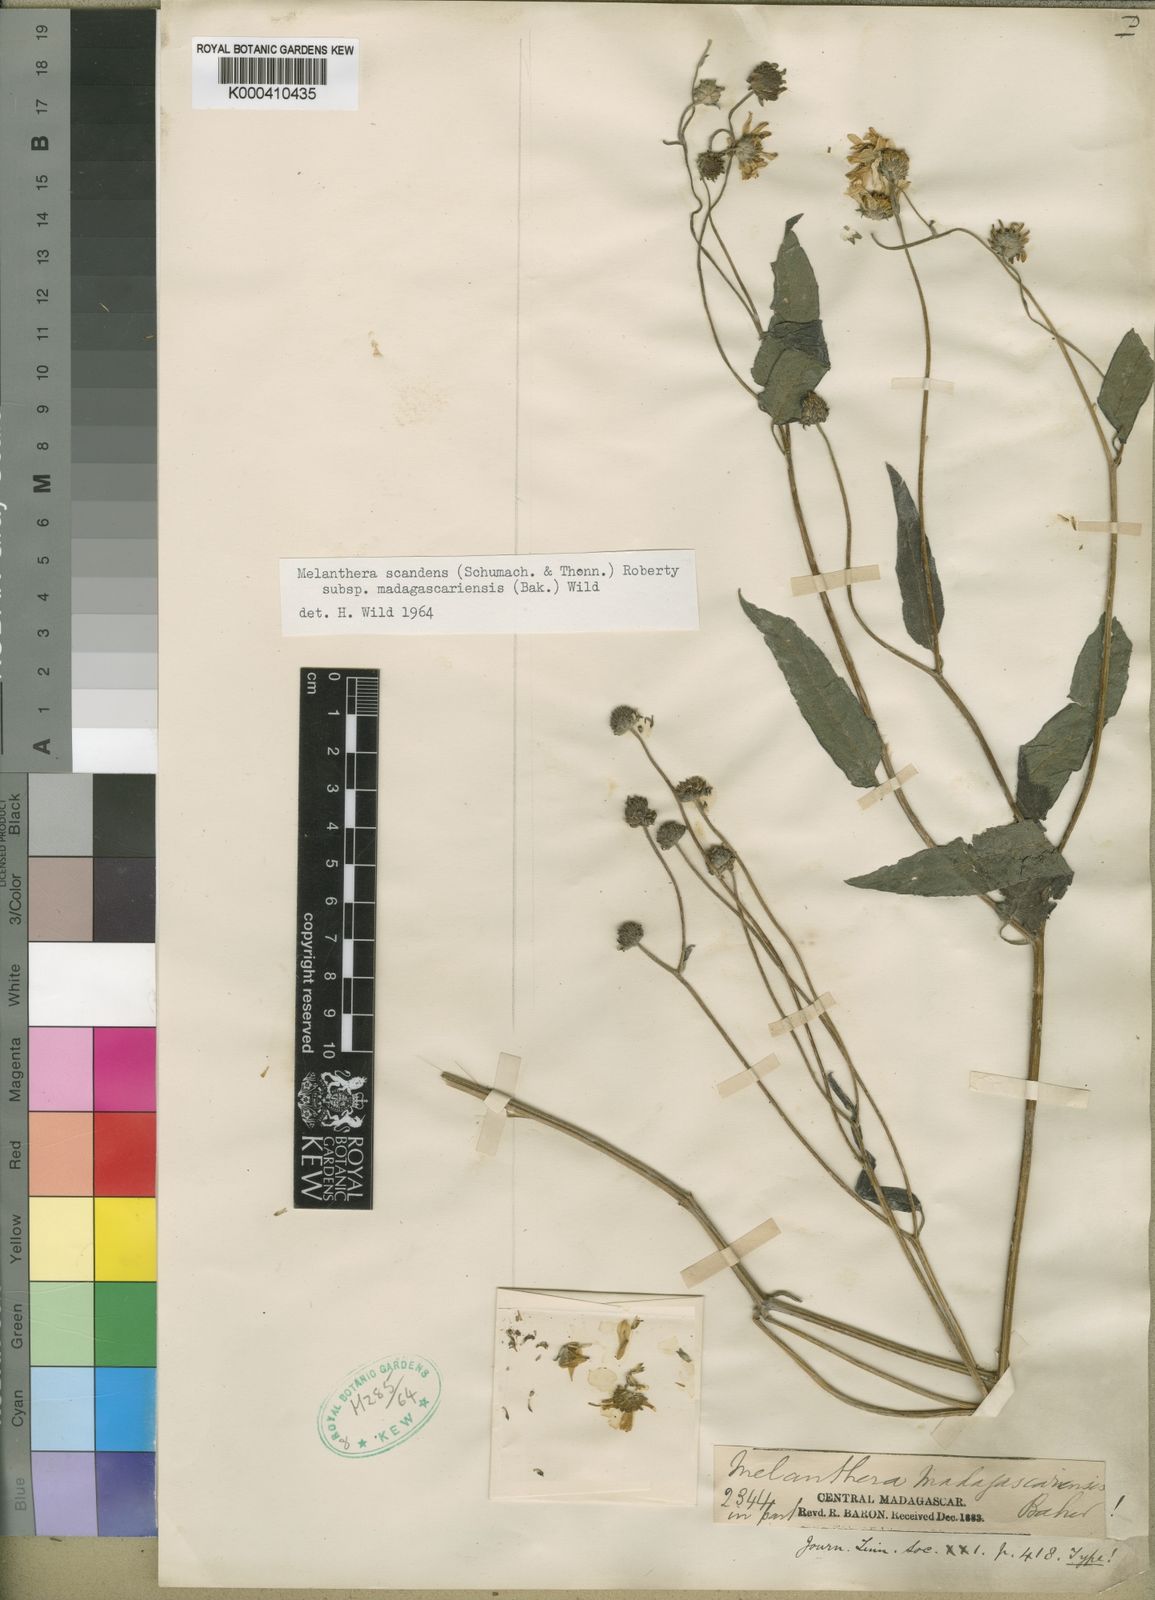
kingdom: Plantae
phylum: Tracheophyta
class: Magnoliopsida
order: Asterales
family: Asteraceae
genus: Melanthera
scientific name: Melanthera
